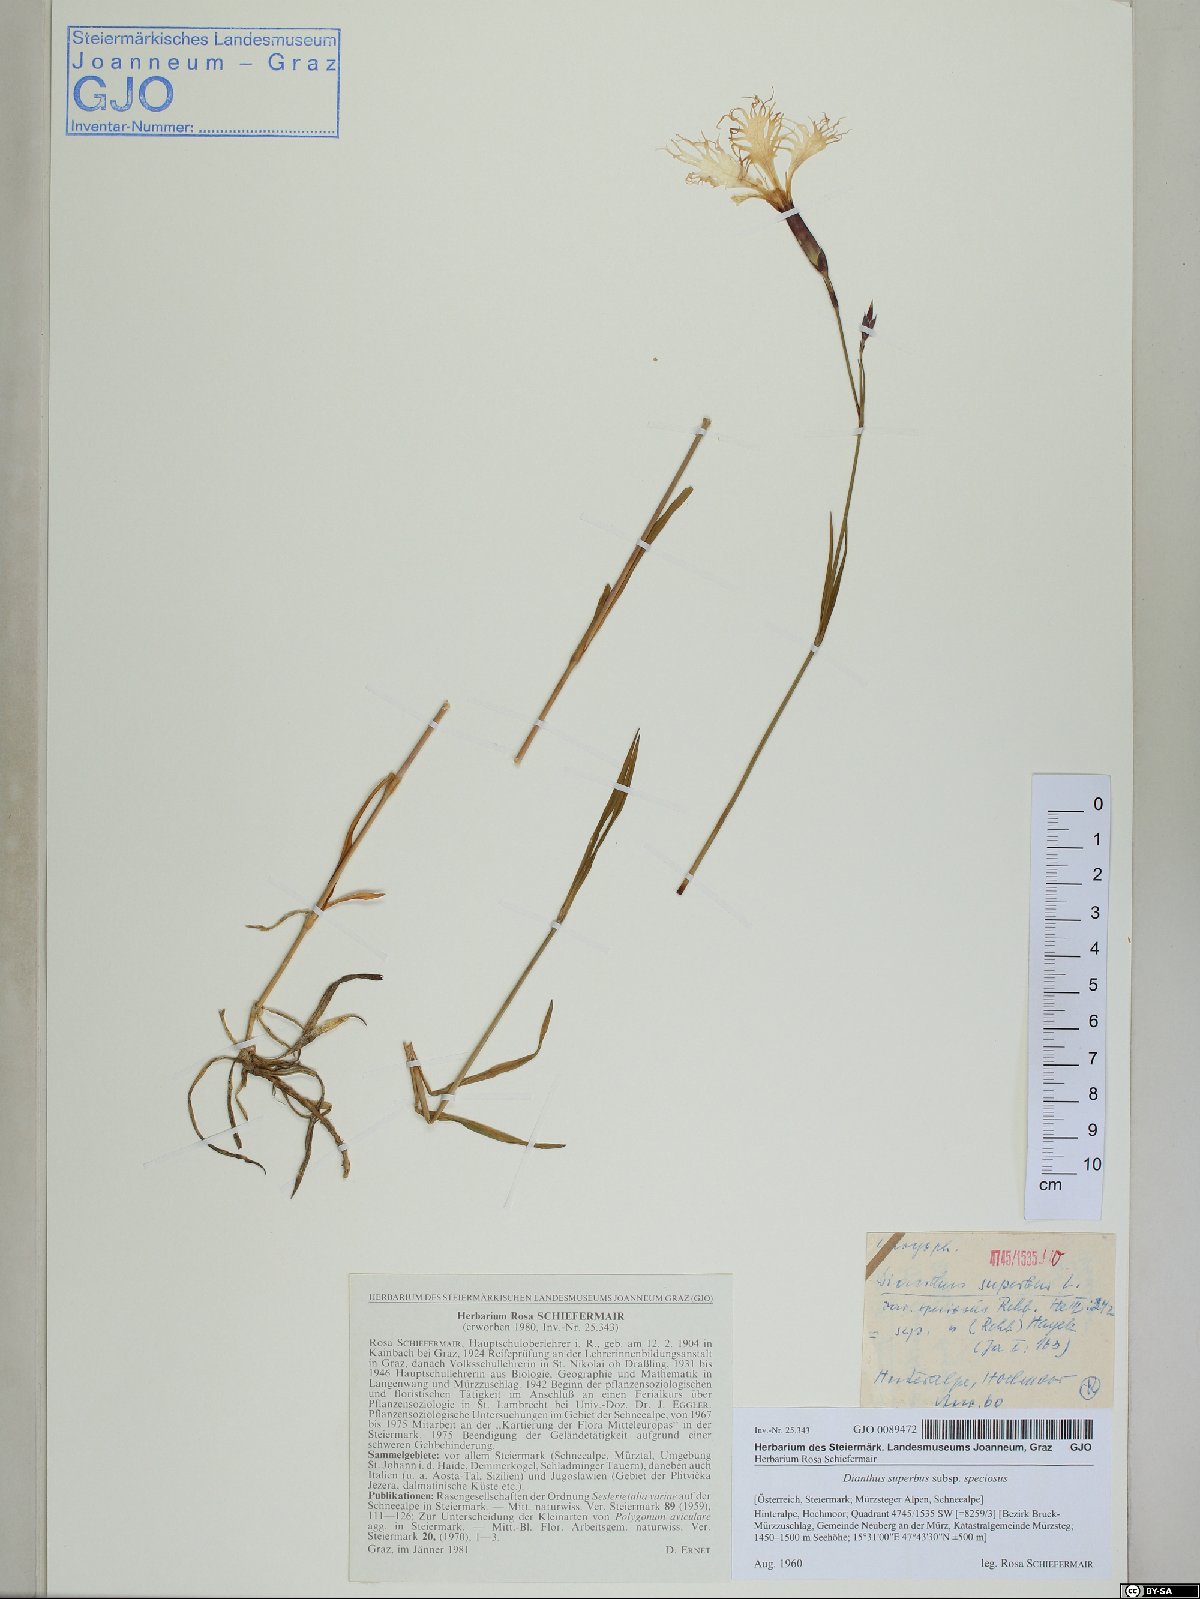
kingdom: Plantae
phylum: Tracheophyta
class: Magnoliopsida
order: Caryophyllales
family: Caryophyllaceae
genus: Dianthus
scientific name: Dianthus superbus
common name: Fringed pink
